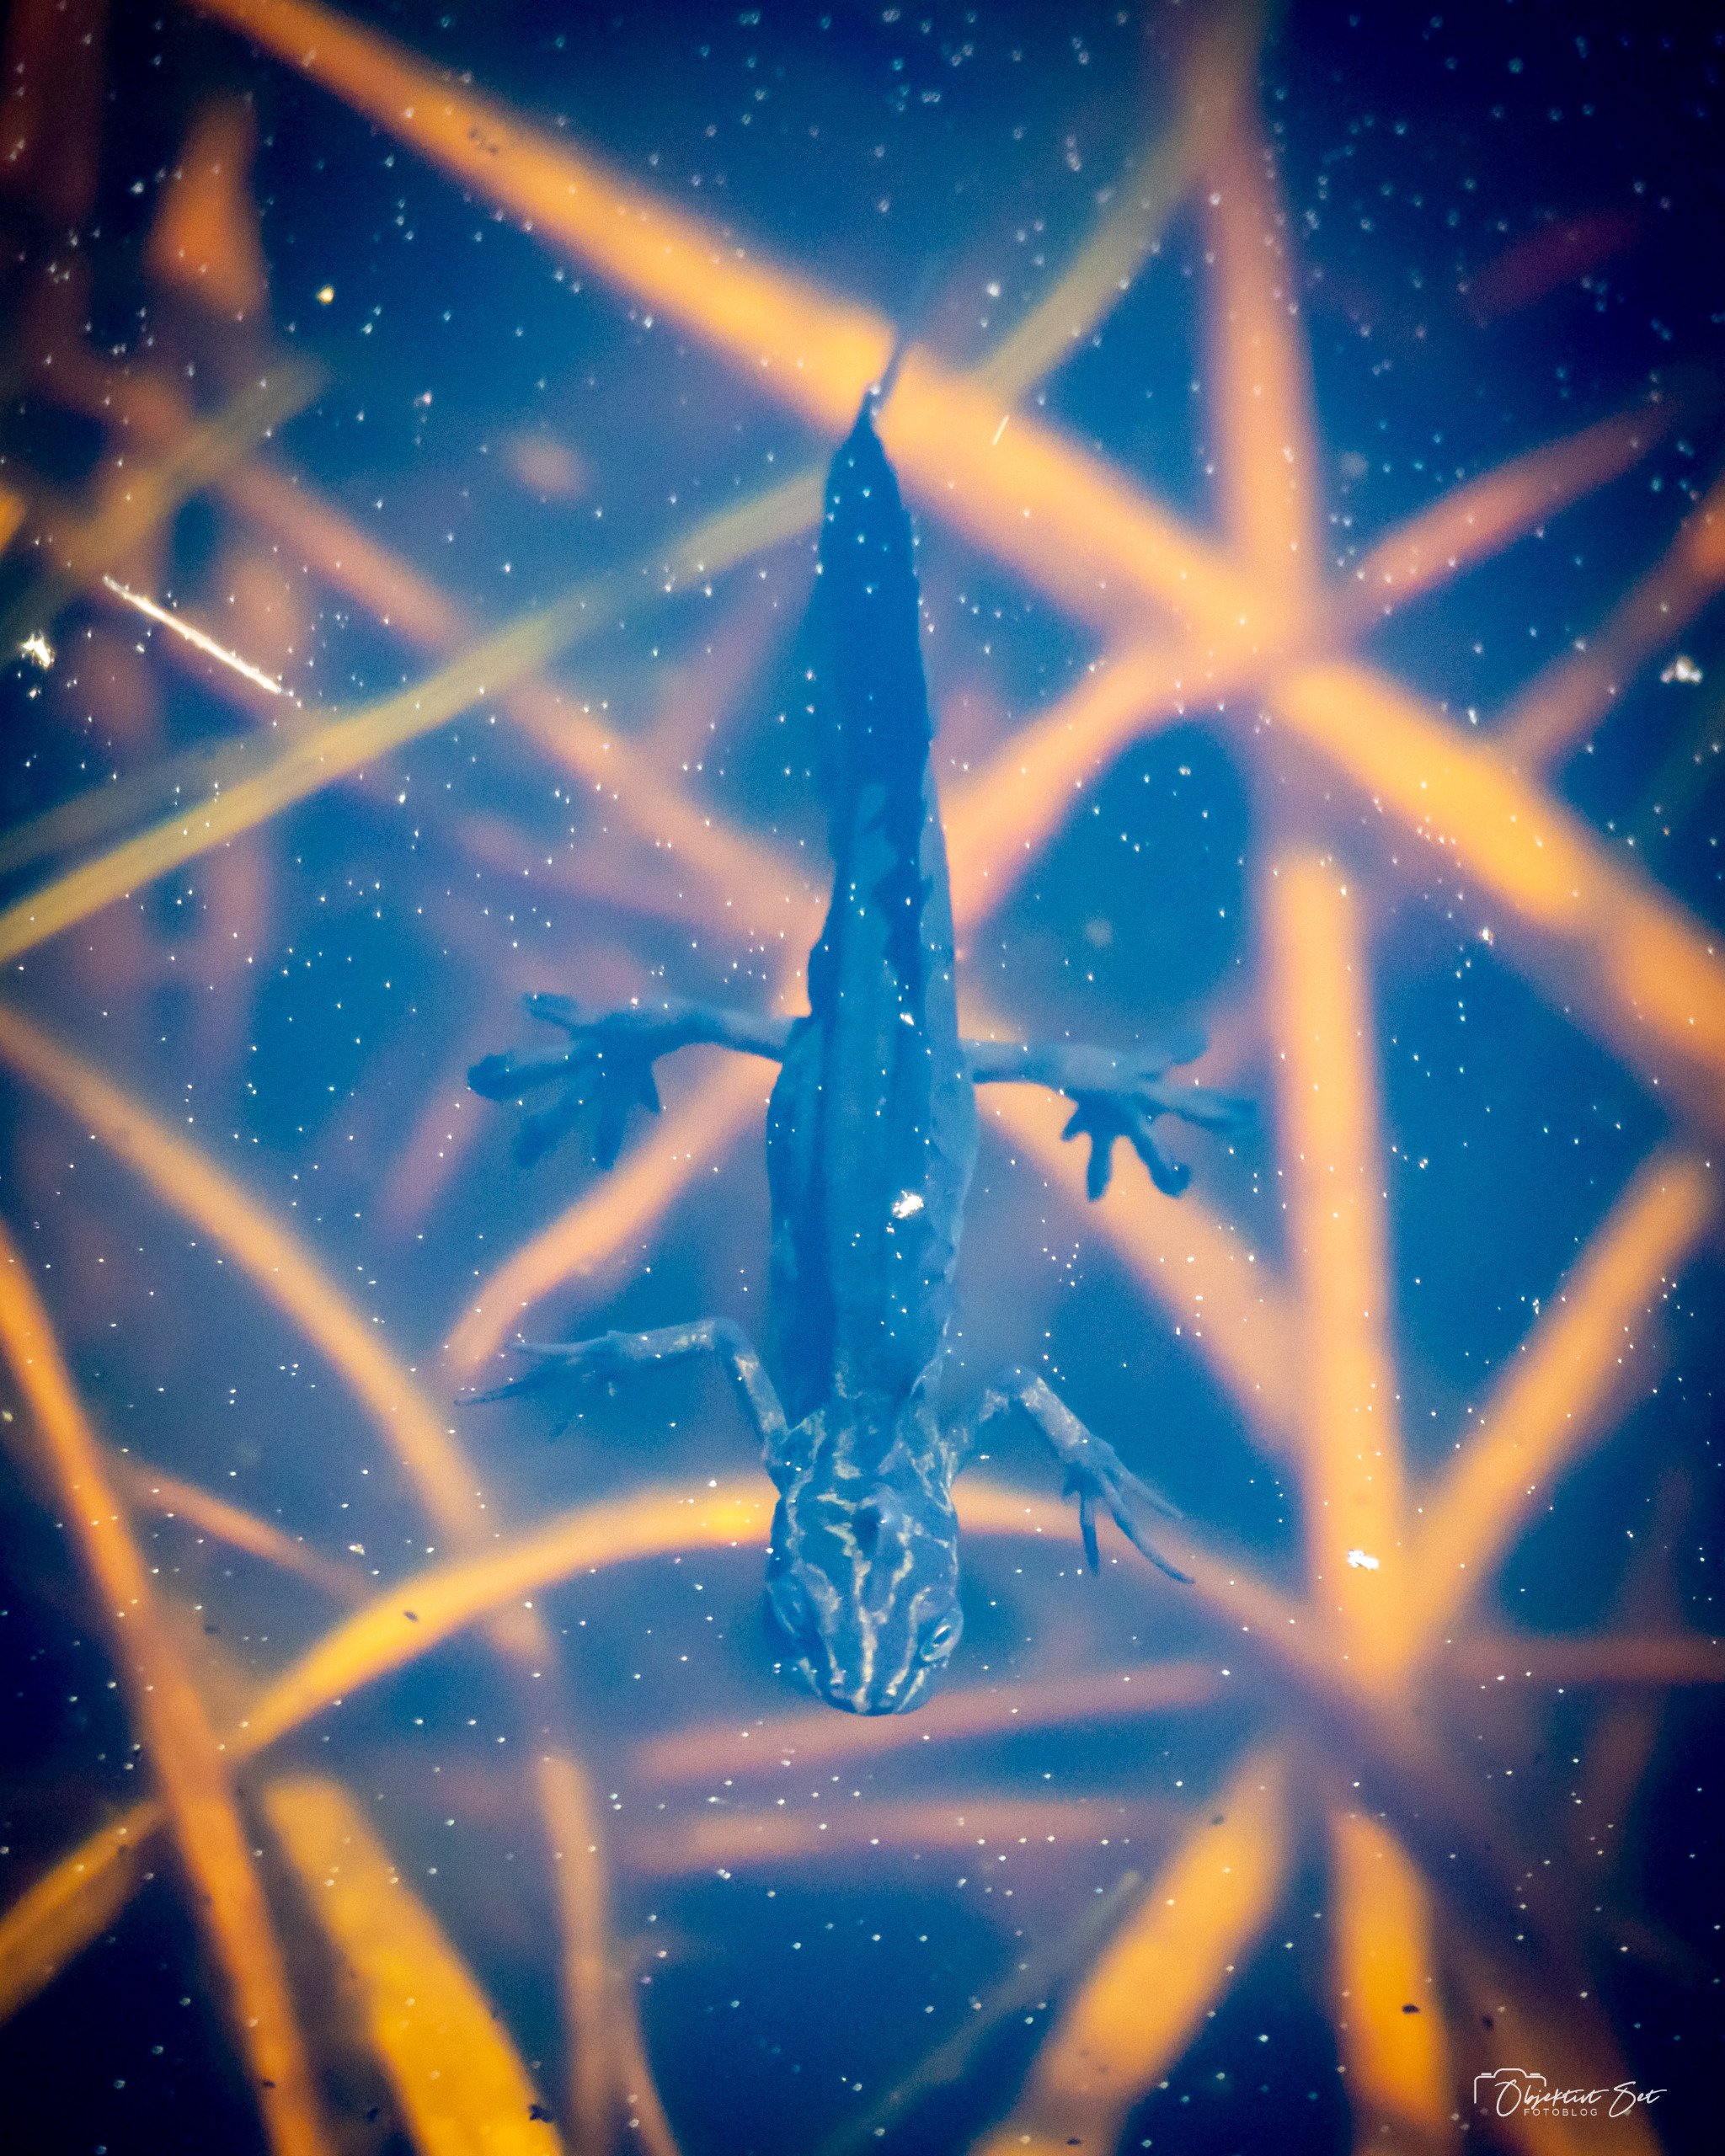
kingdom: Animalia
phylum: Chordata
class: Amphibia
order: Caudata
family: Salamandridae
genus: Lissotriton
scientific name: Lissotriton vulgaris
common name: Lille vandsalamander
